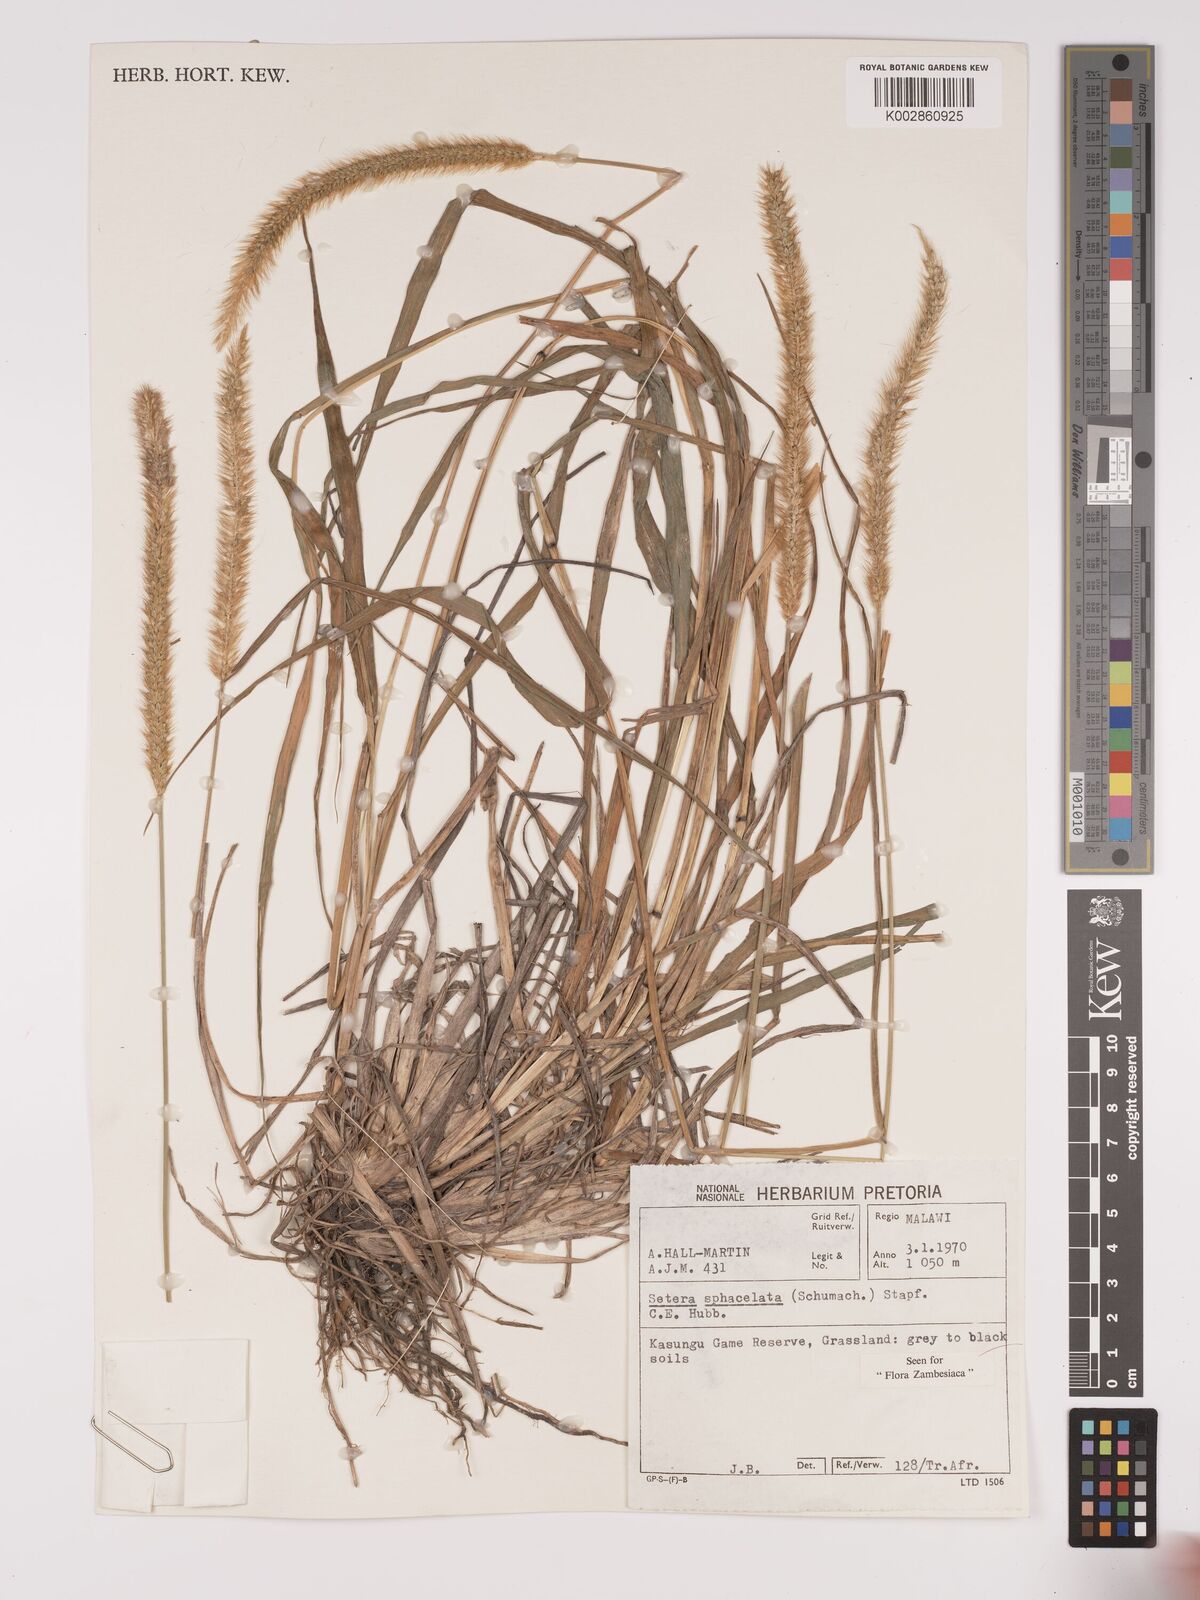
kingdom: Plantae
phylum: Tracheophyta
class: Liliopsida
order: Poales
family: Poaceae
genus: Setaria
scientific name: Setaria sphacelata
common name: African bristlegrass
